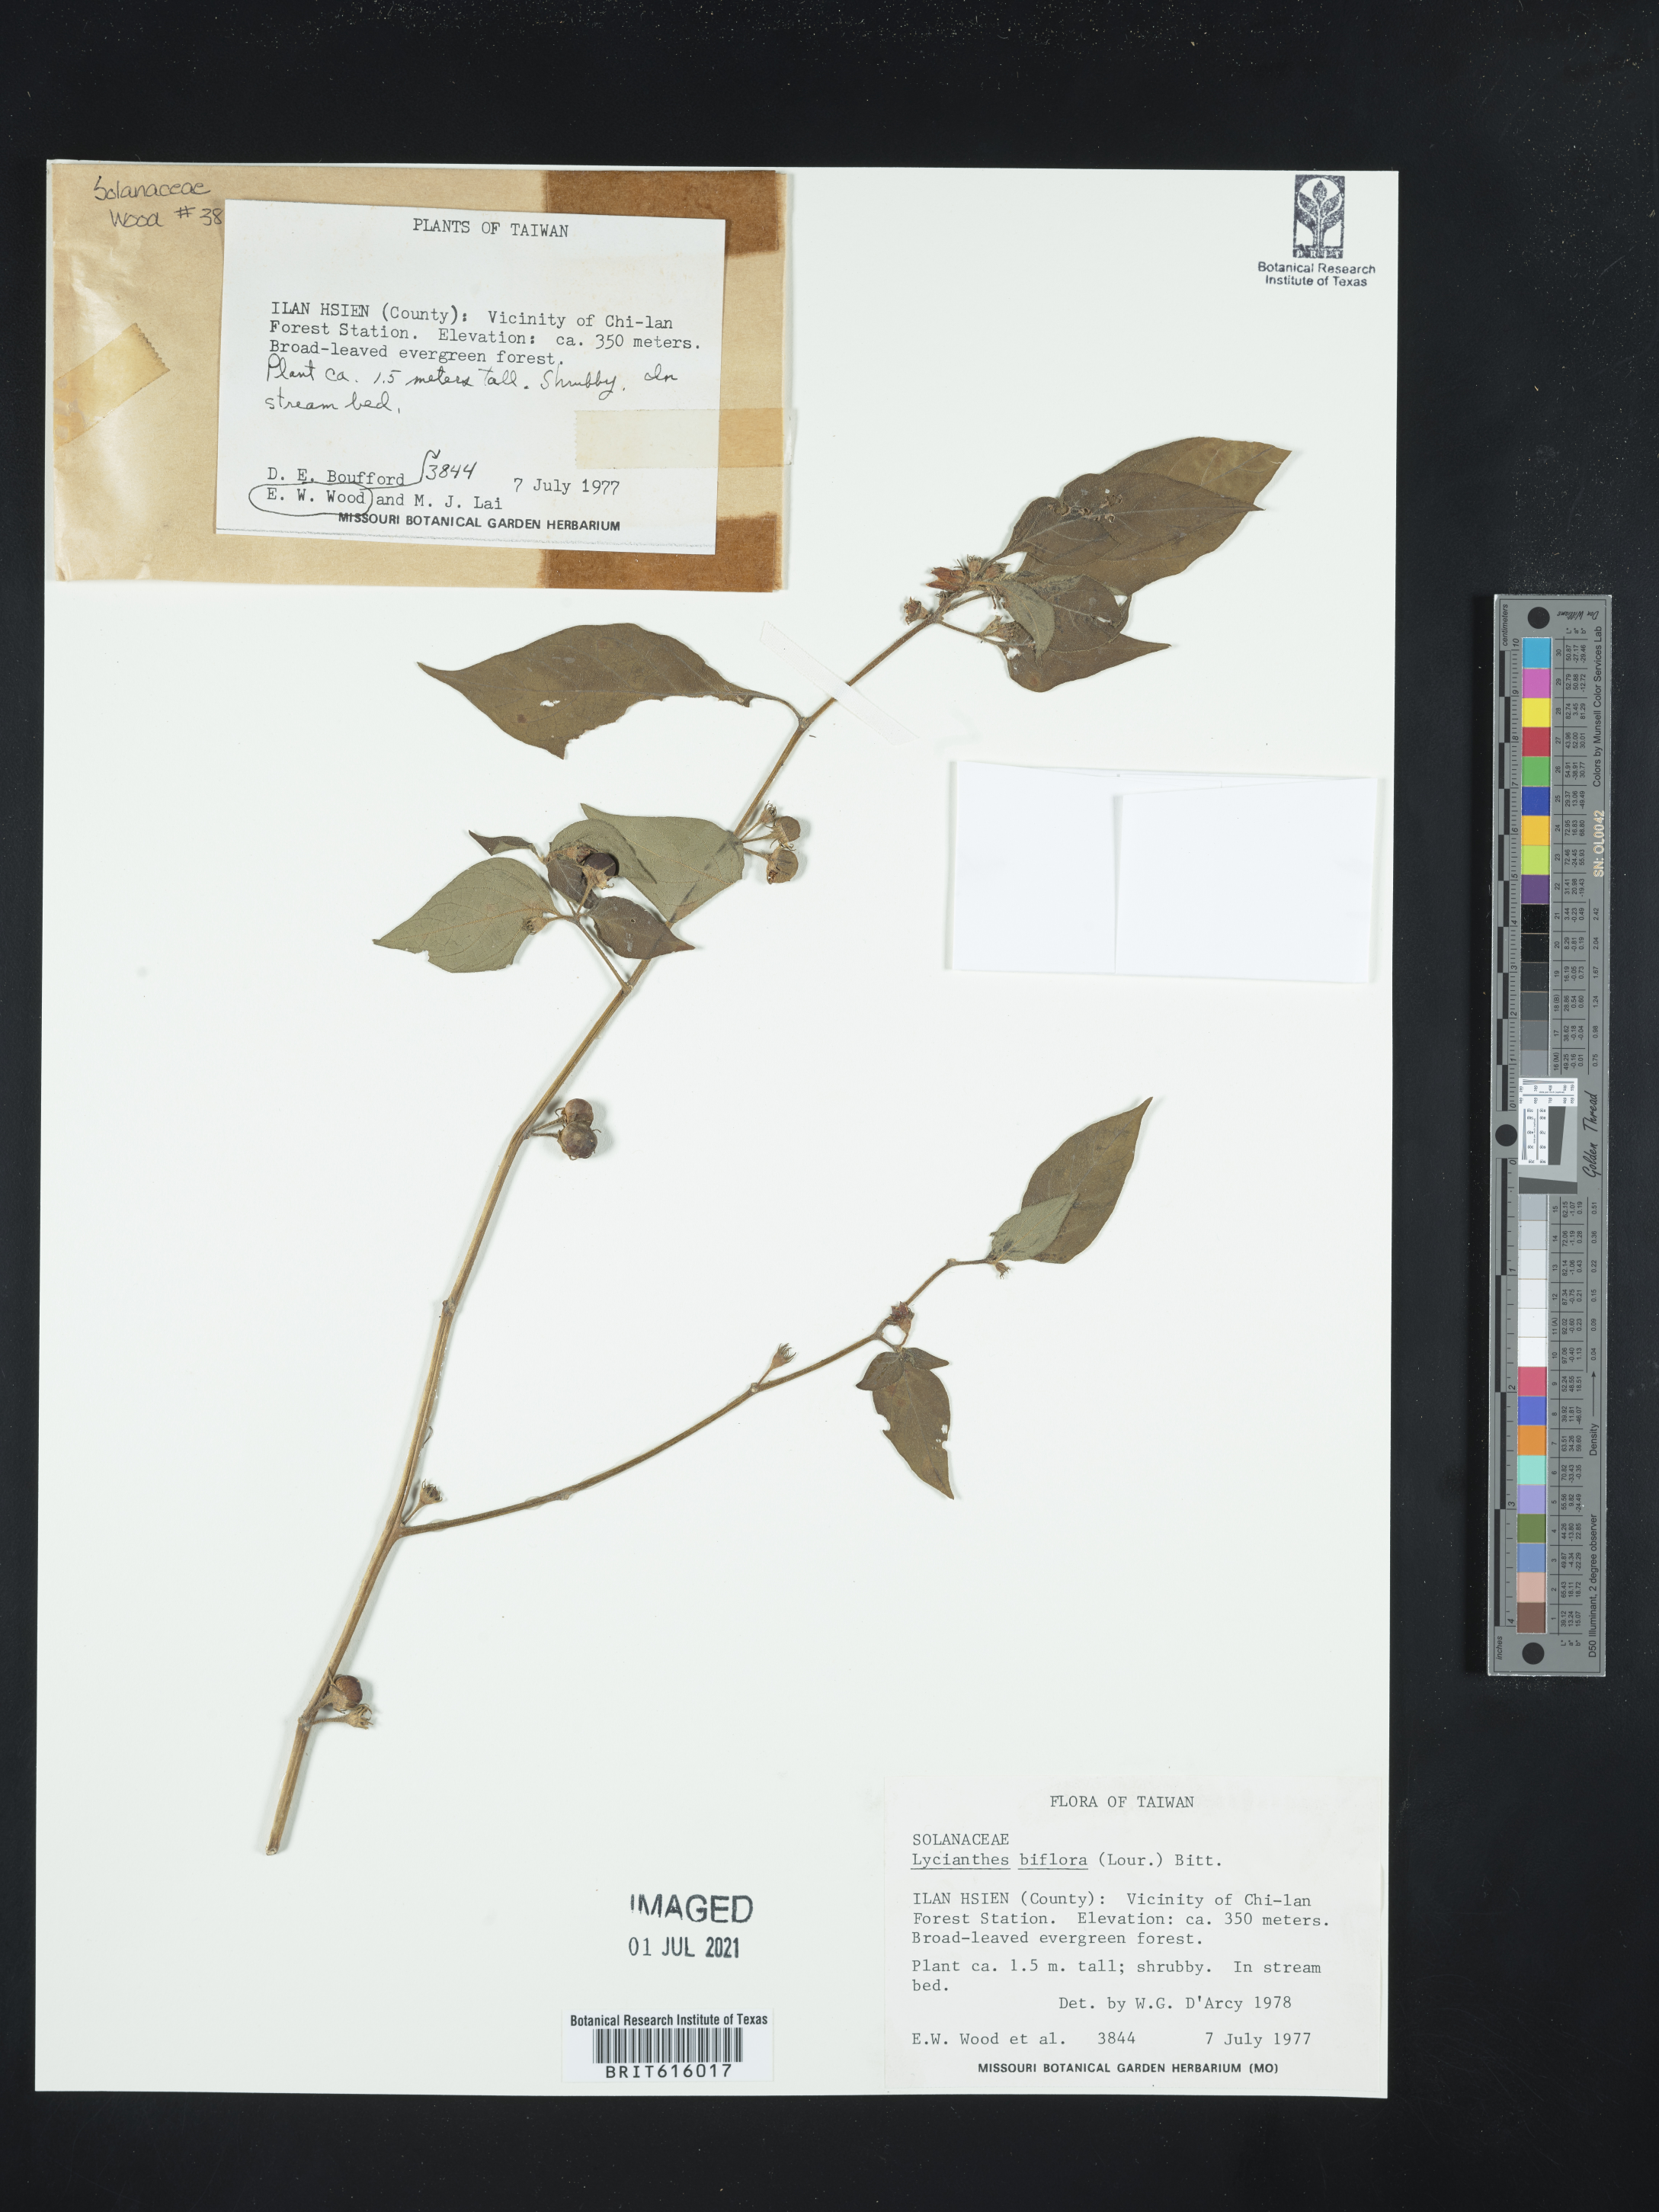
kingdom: Plantae
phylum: Tracheophyta
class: Magnoliopsida
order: Solanales
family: Solanaceae
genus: Lycianthes
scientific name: Lycianthes biflora
